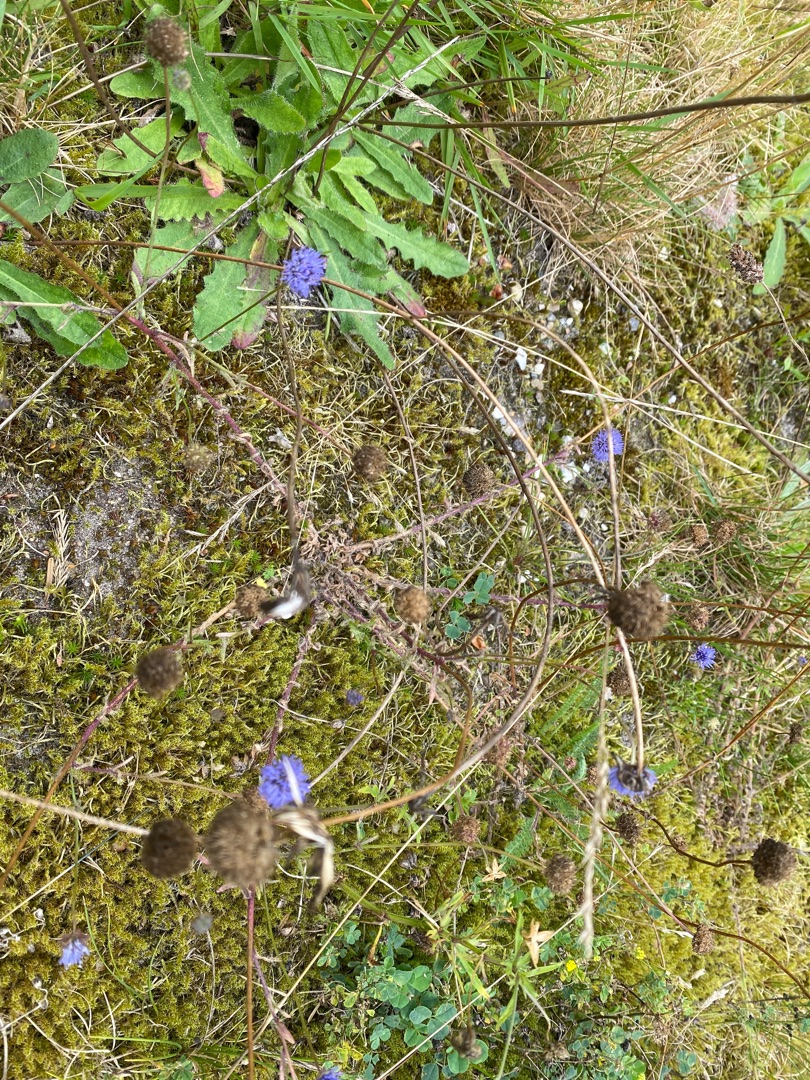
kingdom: Plantae
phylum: Tracheophyta
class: Magnoliopsida
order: Asterales
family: Campanulaceae
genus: Jasione
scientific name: Jasione montana
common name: Blåmunke
